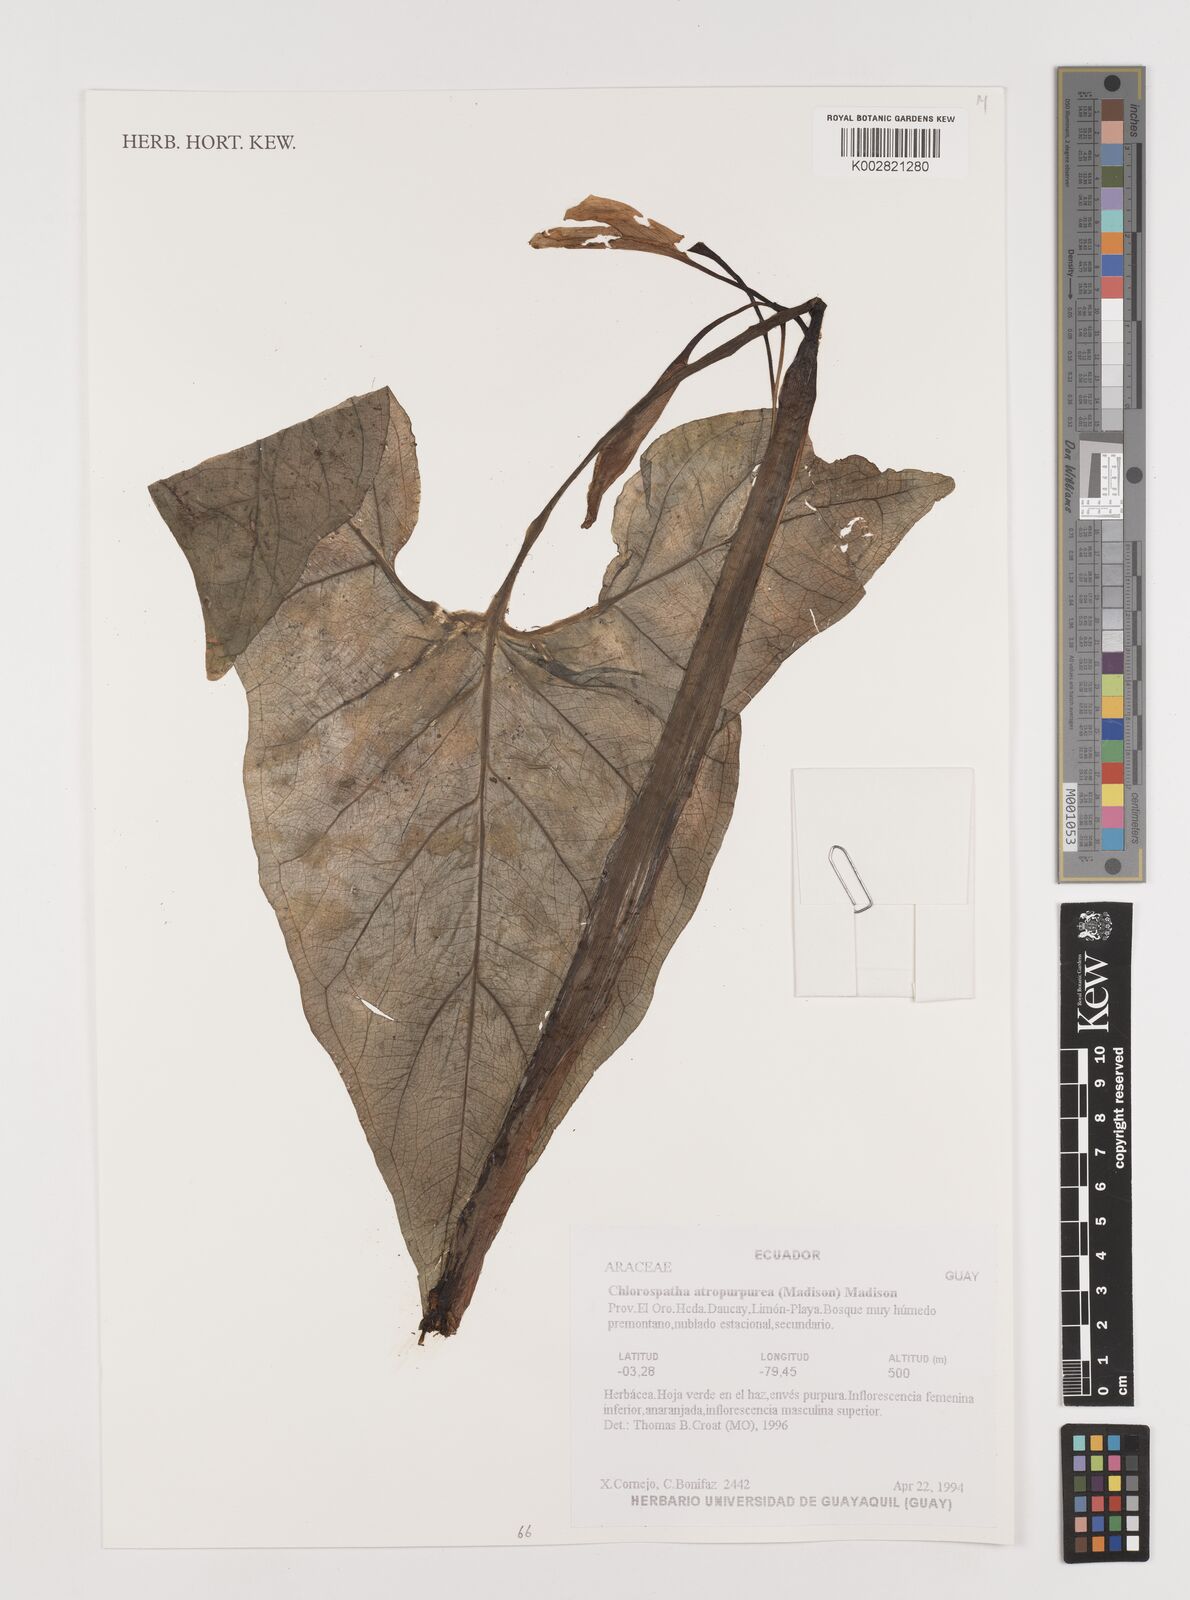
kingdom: Plantae
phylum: Tracheophyta
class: Liliopsida
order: Alismatales
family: Araceae
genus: Chlorospatha
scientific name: Chlorospatha atropurpurea
